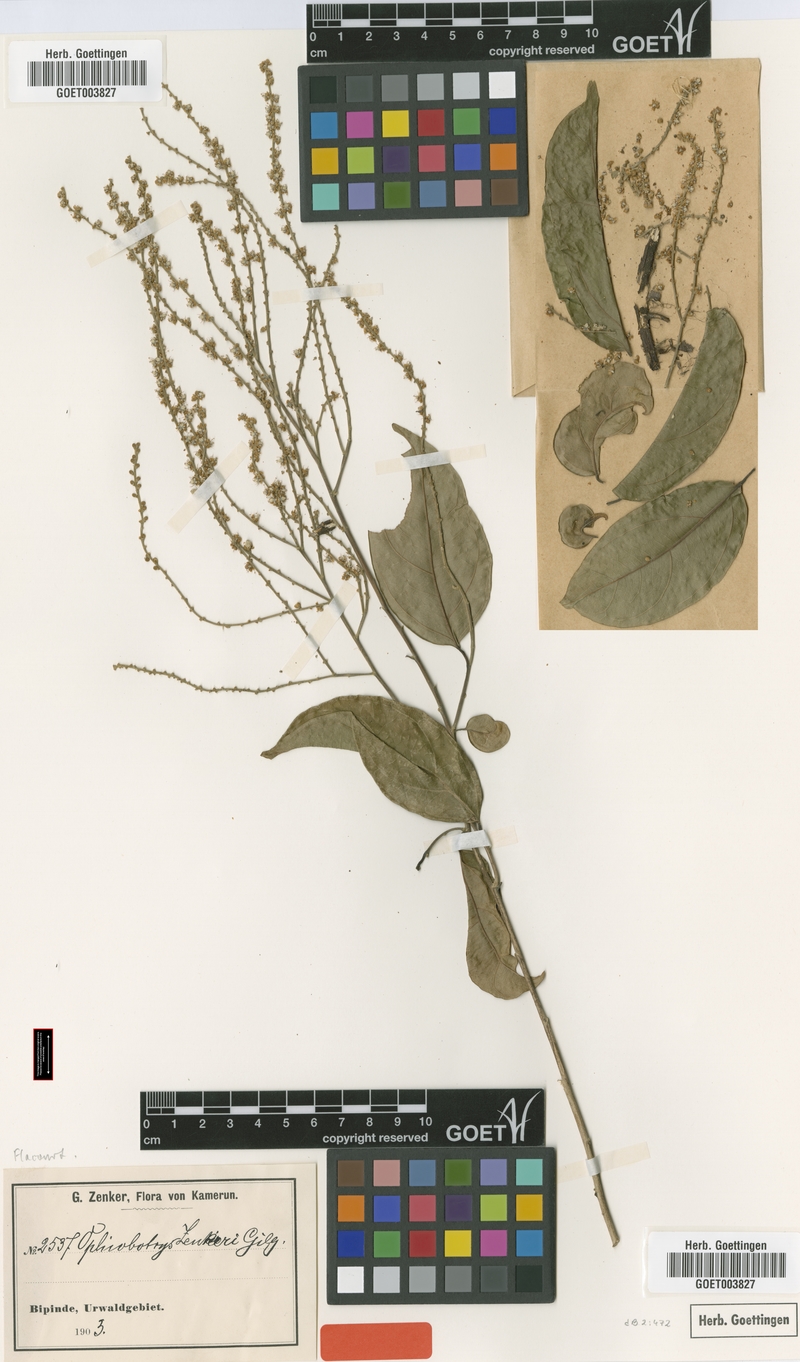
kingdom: Plantae
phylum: Tracheophyta
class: Magnoliopsida
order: Malpighiales
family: Salicaceae
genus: Ophiobotrys
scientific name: Ophiobotrys zenkeri
